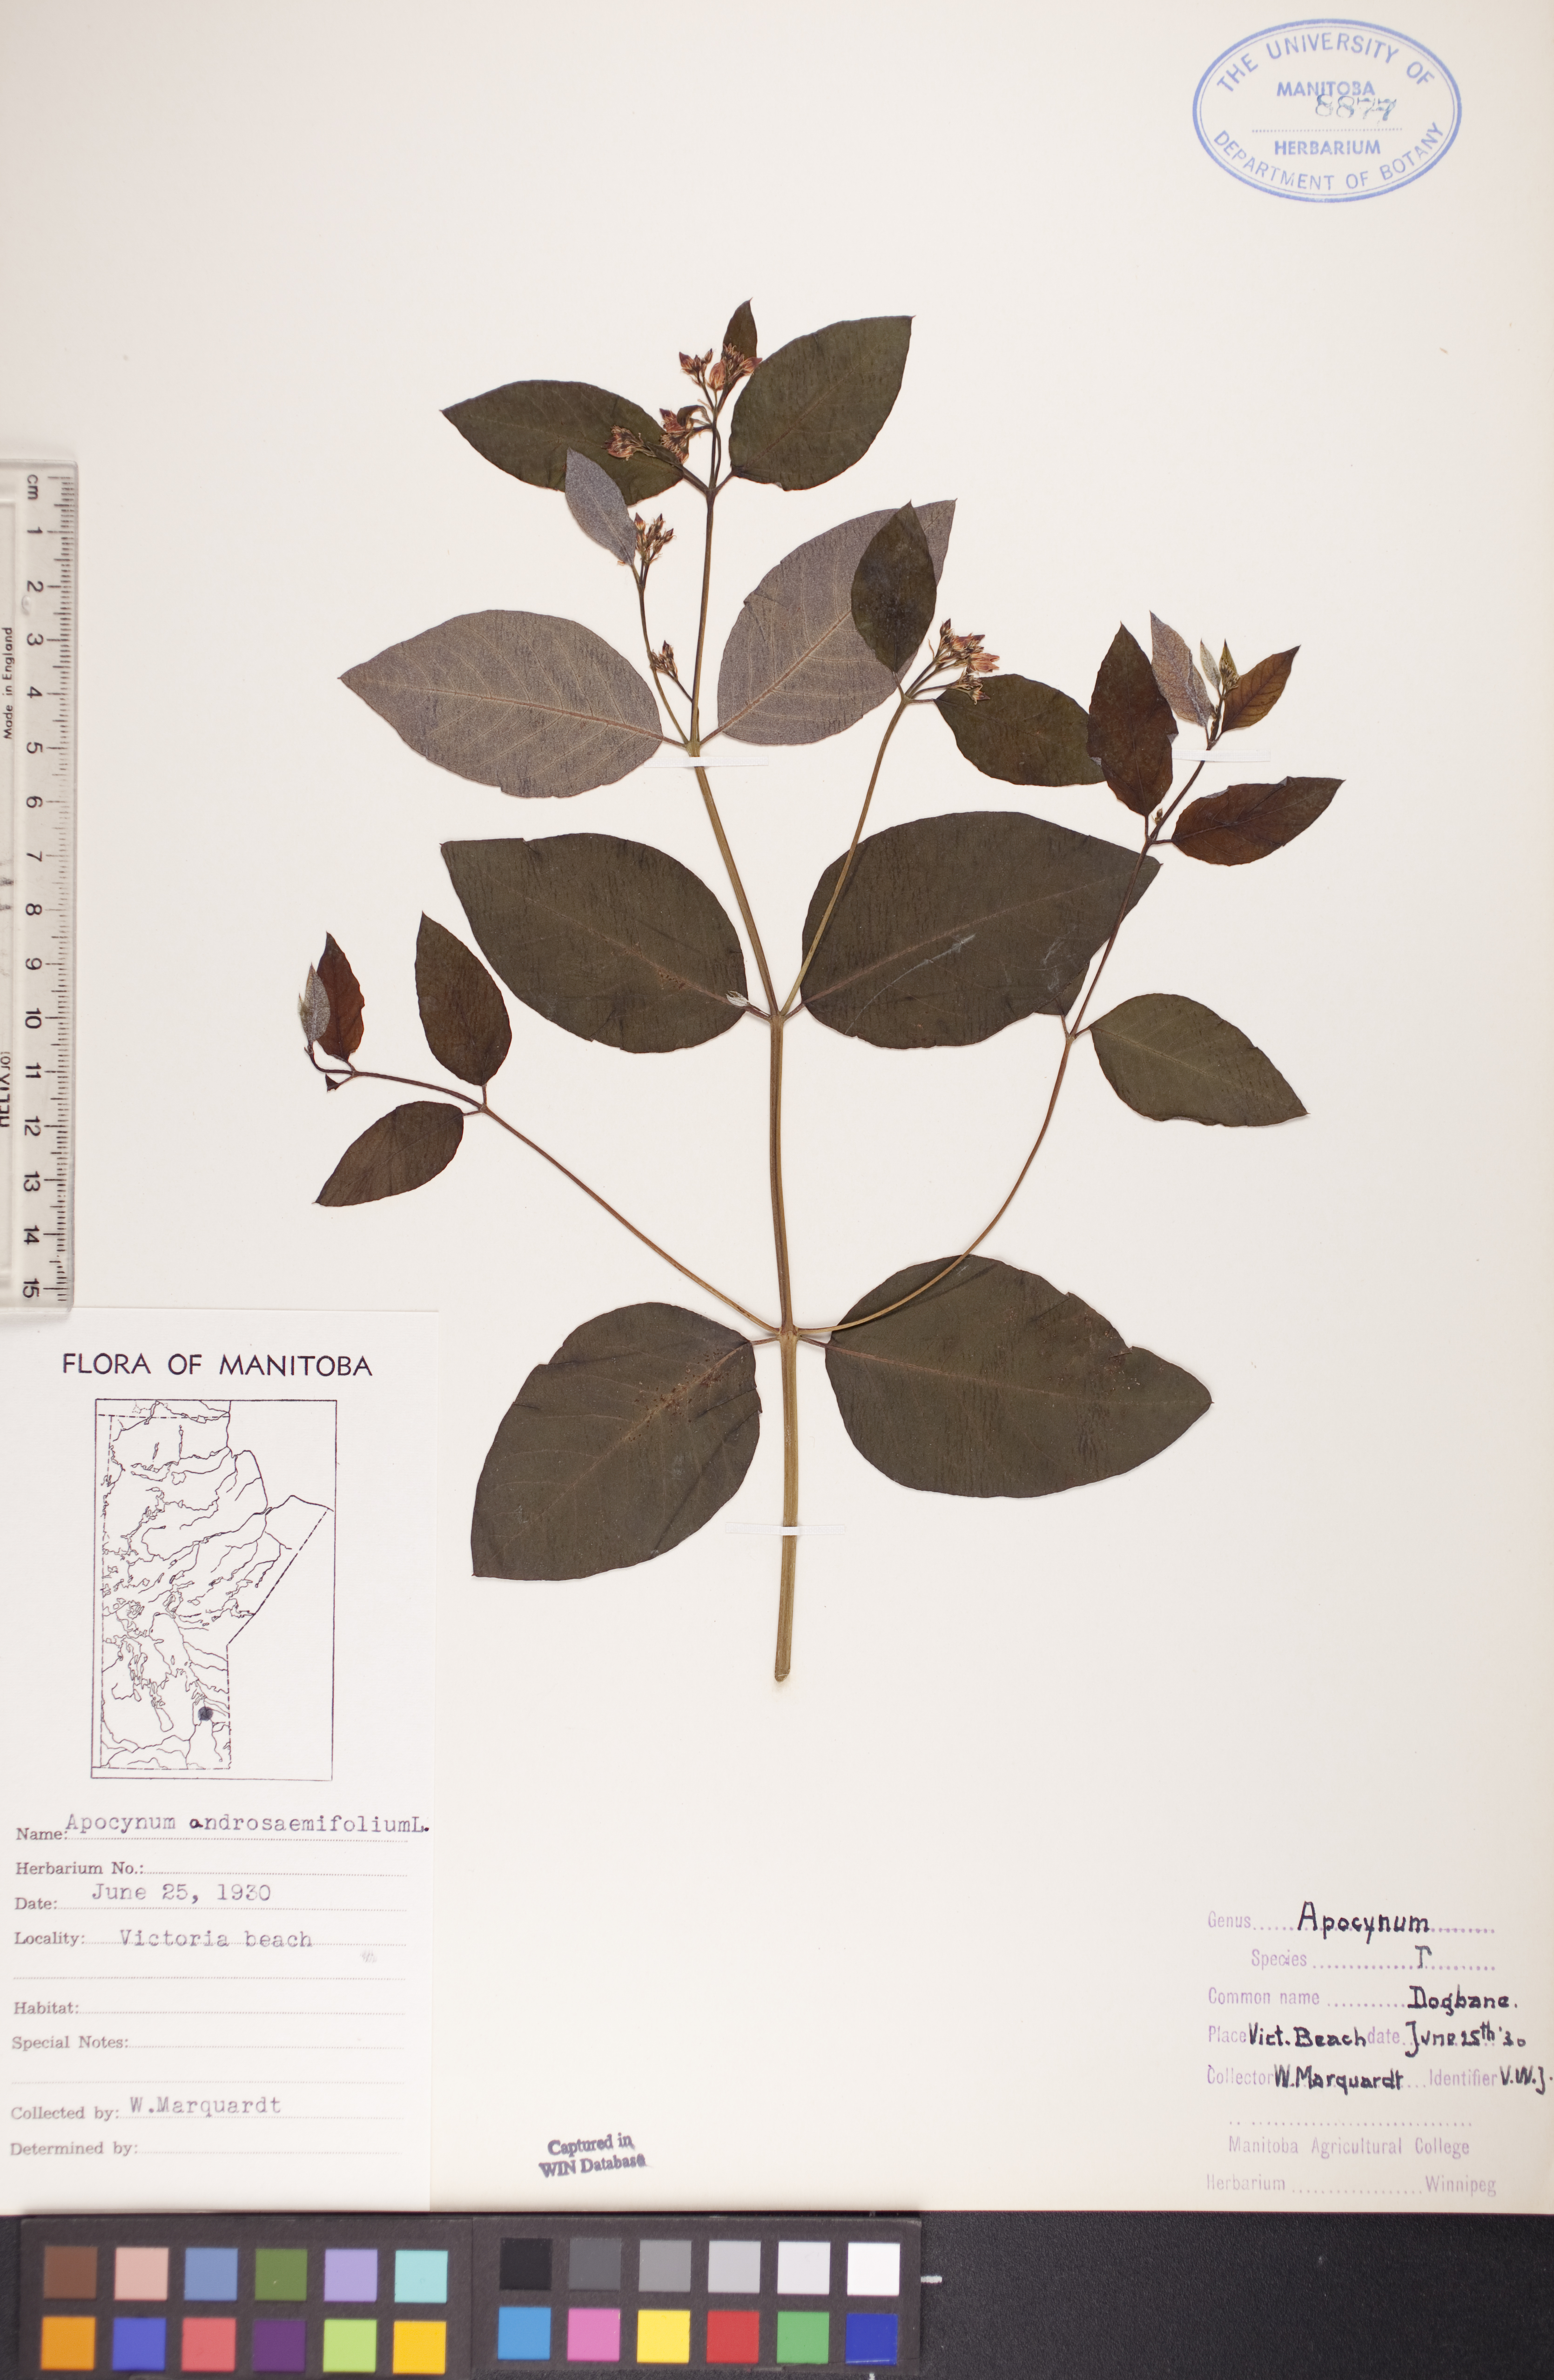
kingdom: Plantae
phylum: Tracheophyta
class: Magnoliopsida
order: Gentianales
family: Apocynaceae
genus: Apocynum
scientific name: Apocynum androsaemifolium
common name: Spreading dogbane
